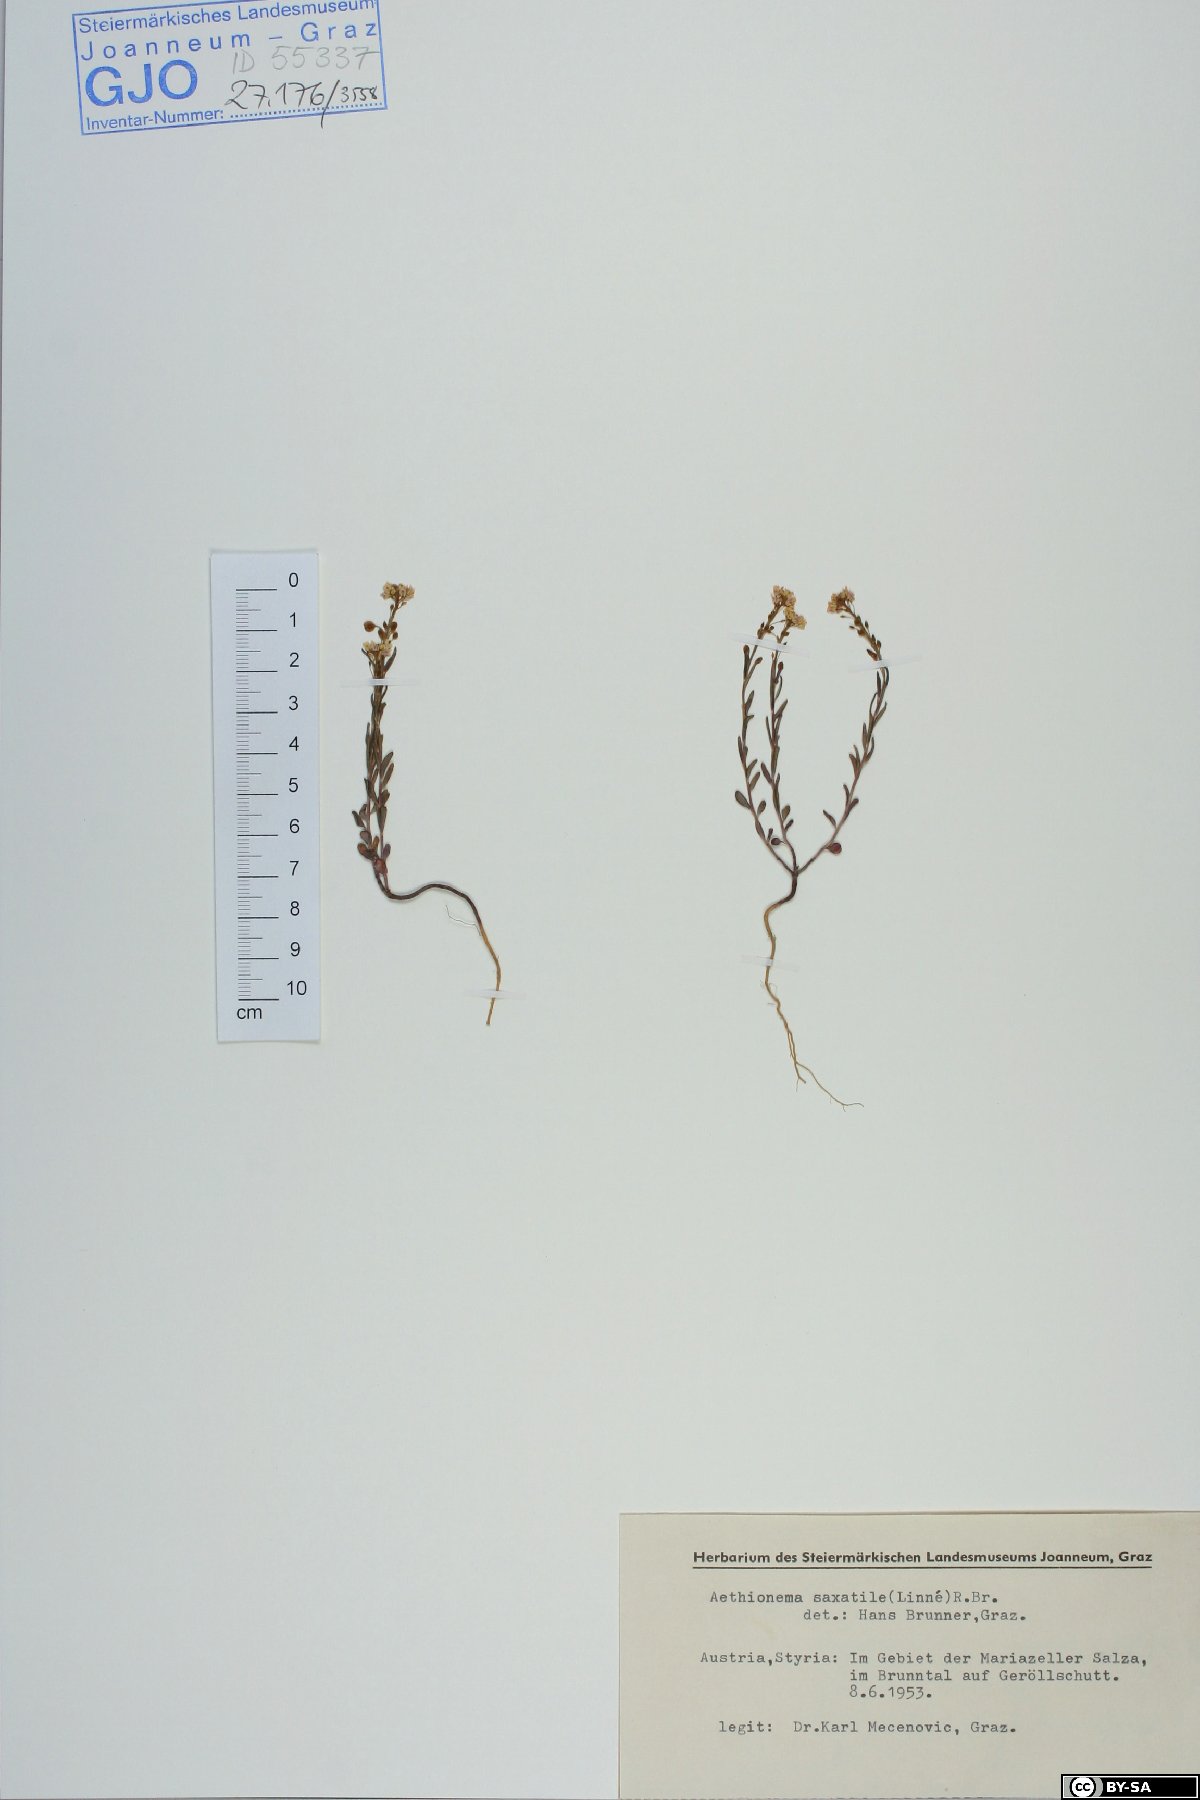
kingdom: Plantae
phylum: Tracheophyta
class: Magnoliopsida
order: Brassicales
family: Brassicaceae
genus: Aethionema
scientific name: Aethionema saxatile
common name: Burnt candytuft
